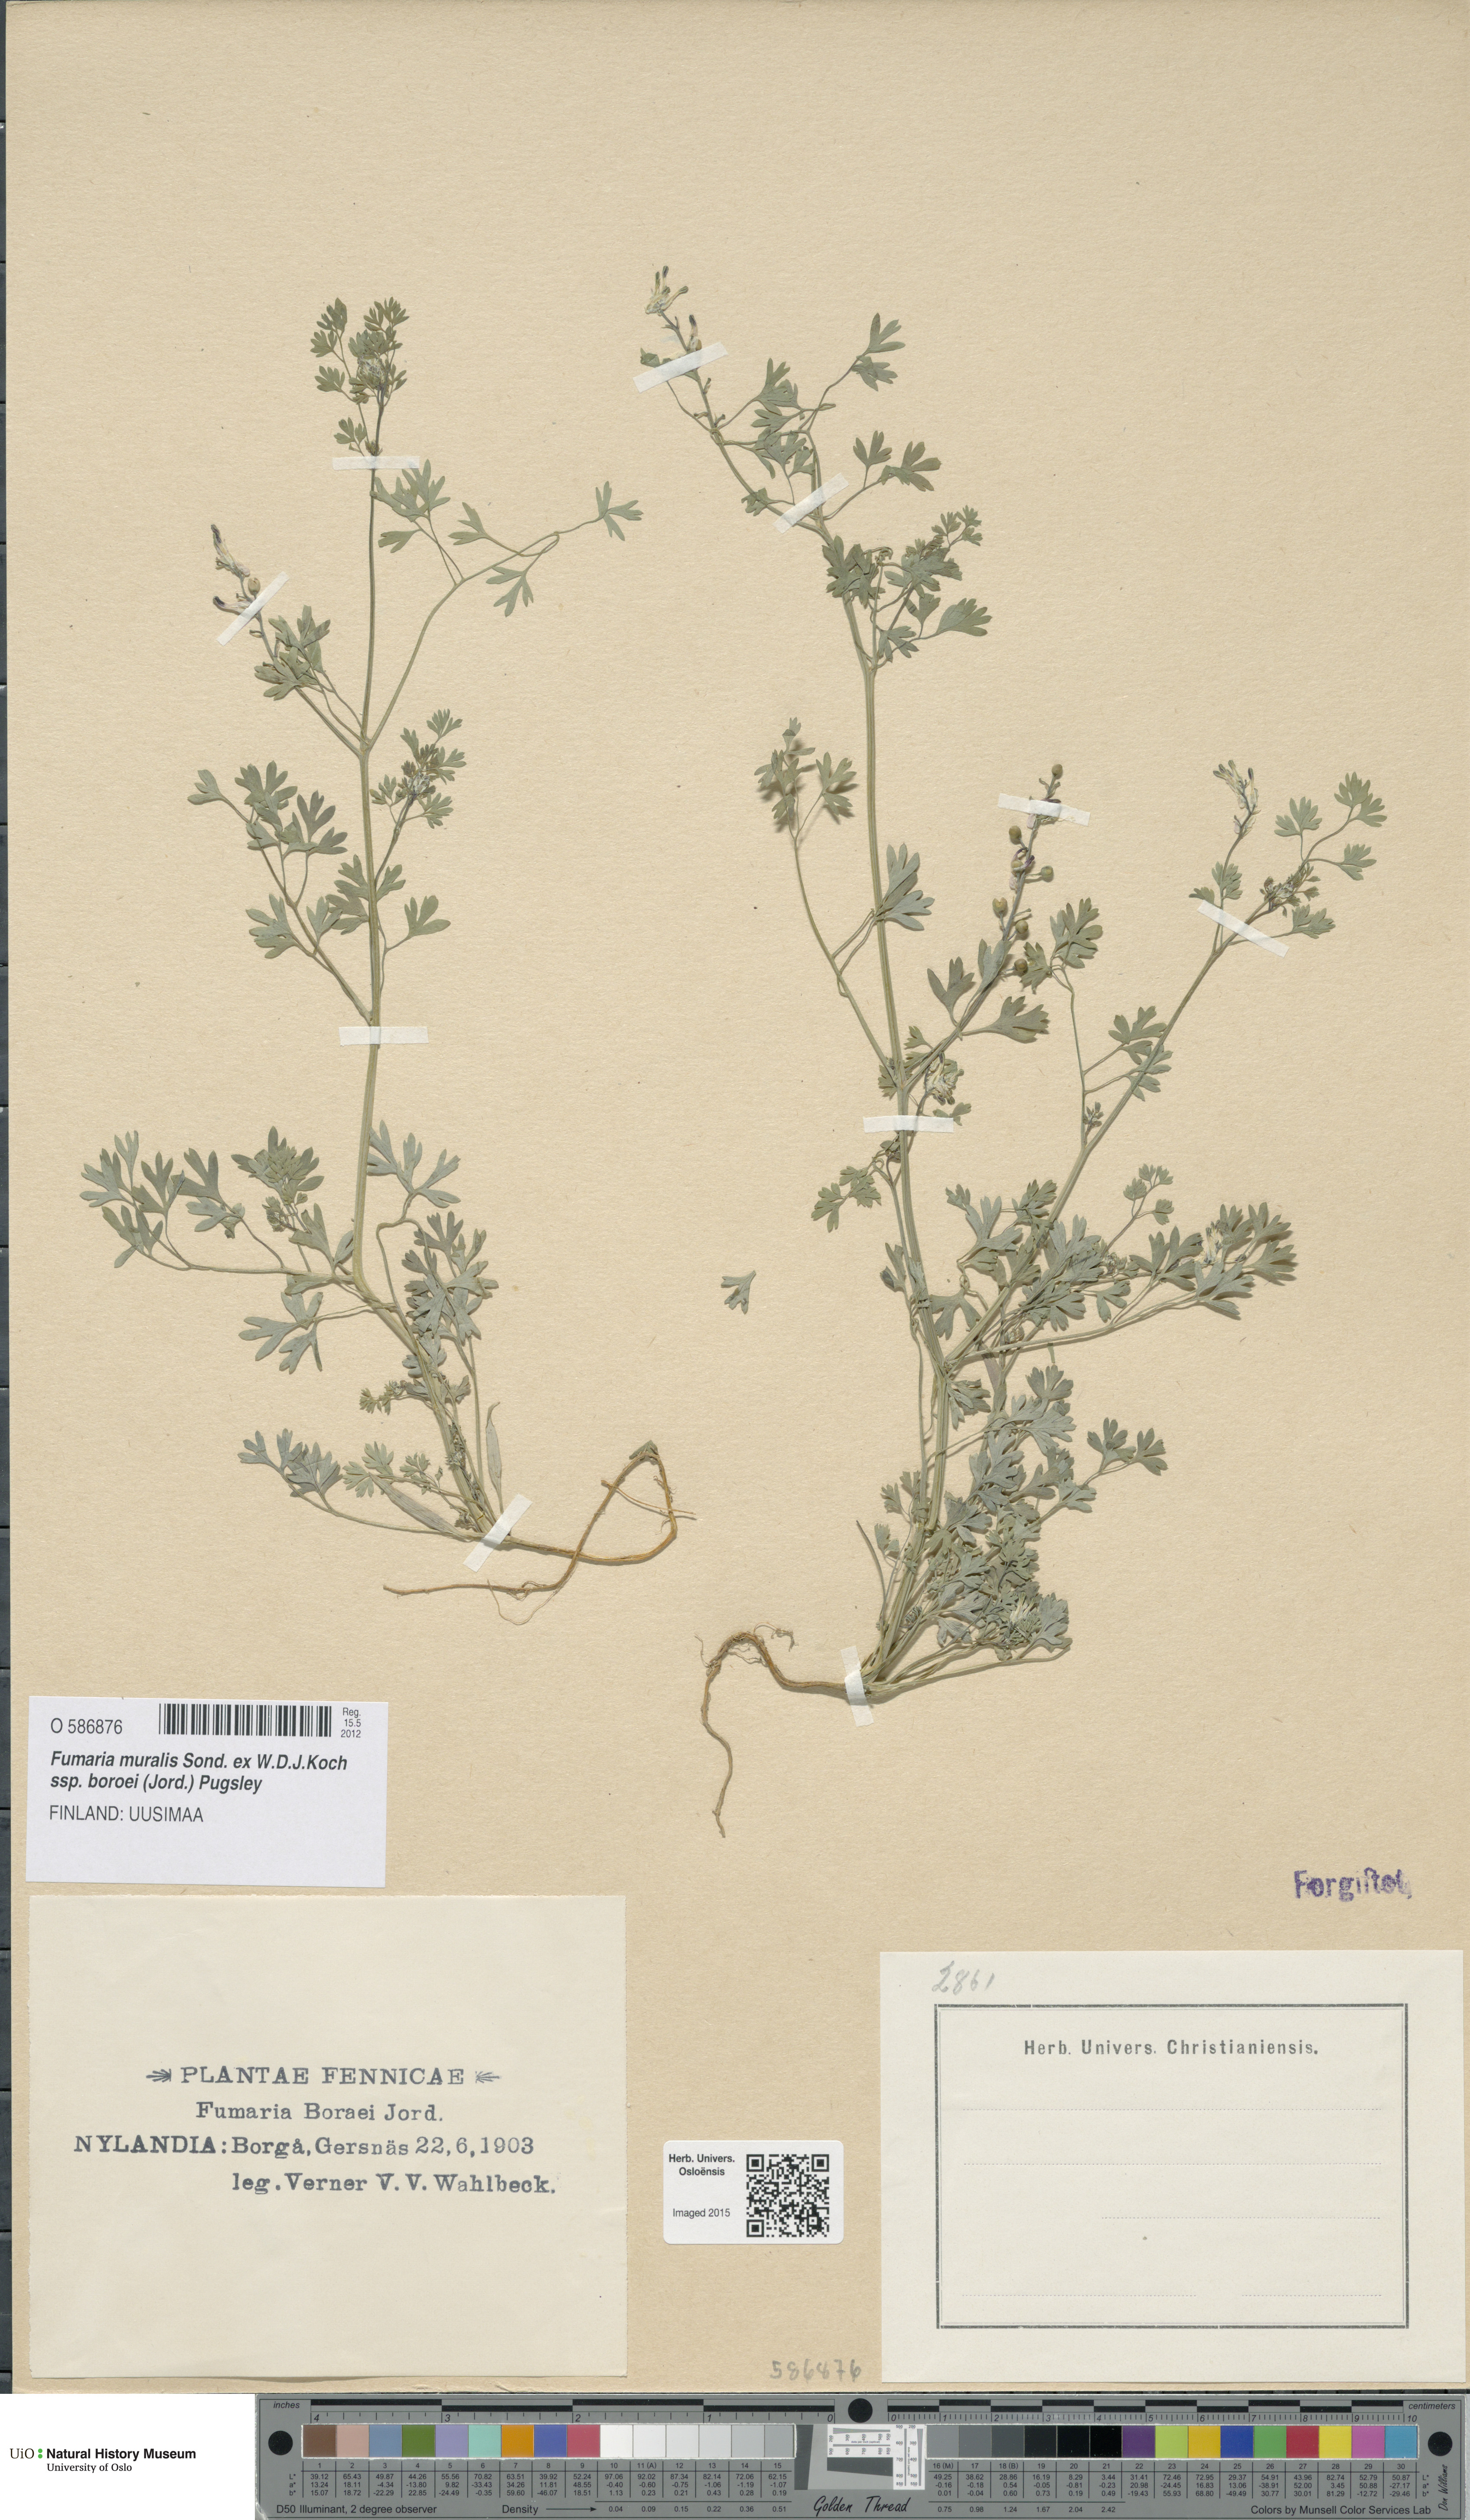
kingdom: Plantae
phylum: Tracheophyta
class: Magnoliopsida
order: Ranunculales
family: Papaveraceae
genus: Fumaria
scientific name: Fumaria muralis
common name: Common ramping-fumitory
